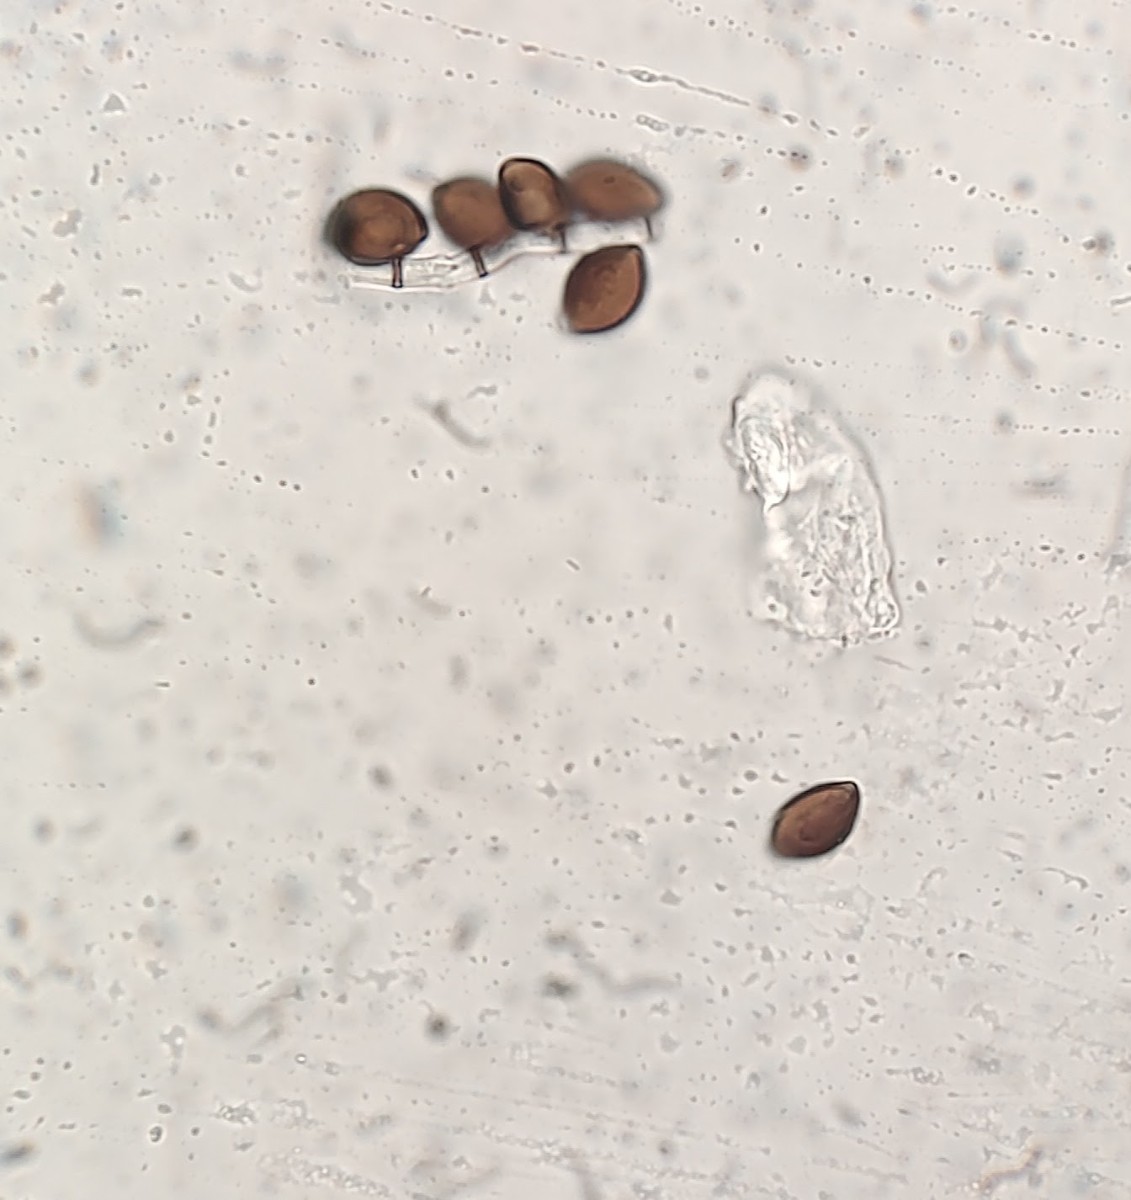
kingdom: Fungi
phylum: Ascomycota
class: Sordariomycetes
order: Xylariales
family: Apiosporaceae
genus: Arthrinium
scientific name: Arthrinium sporophleum
